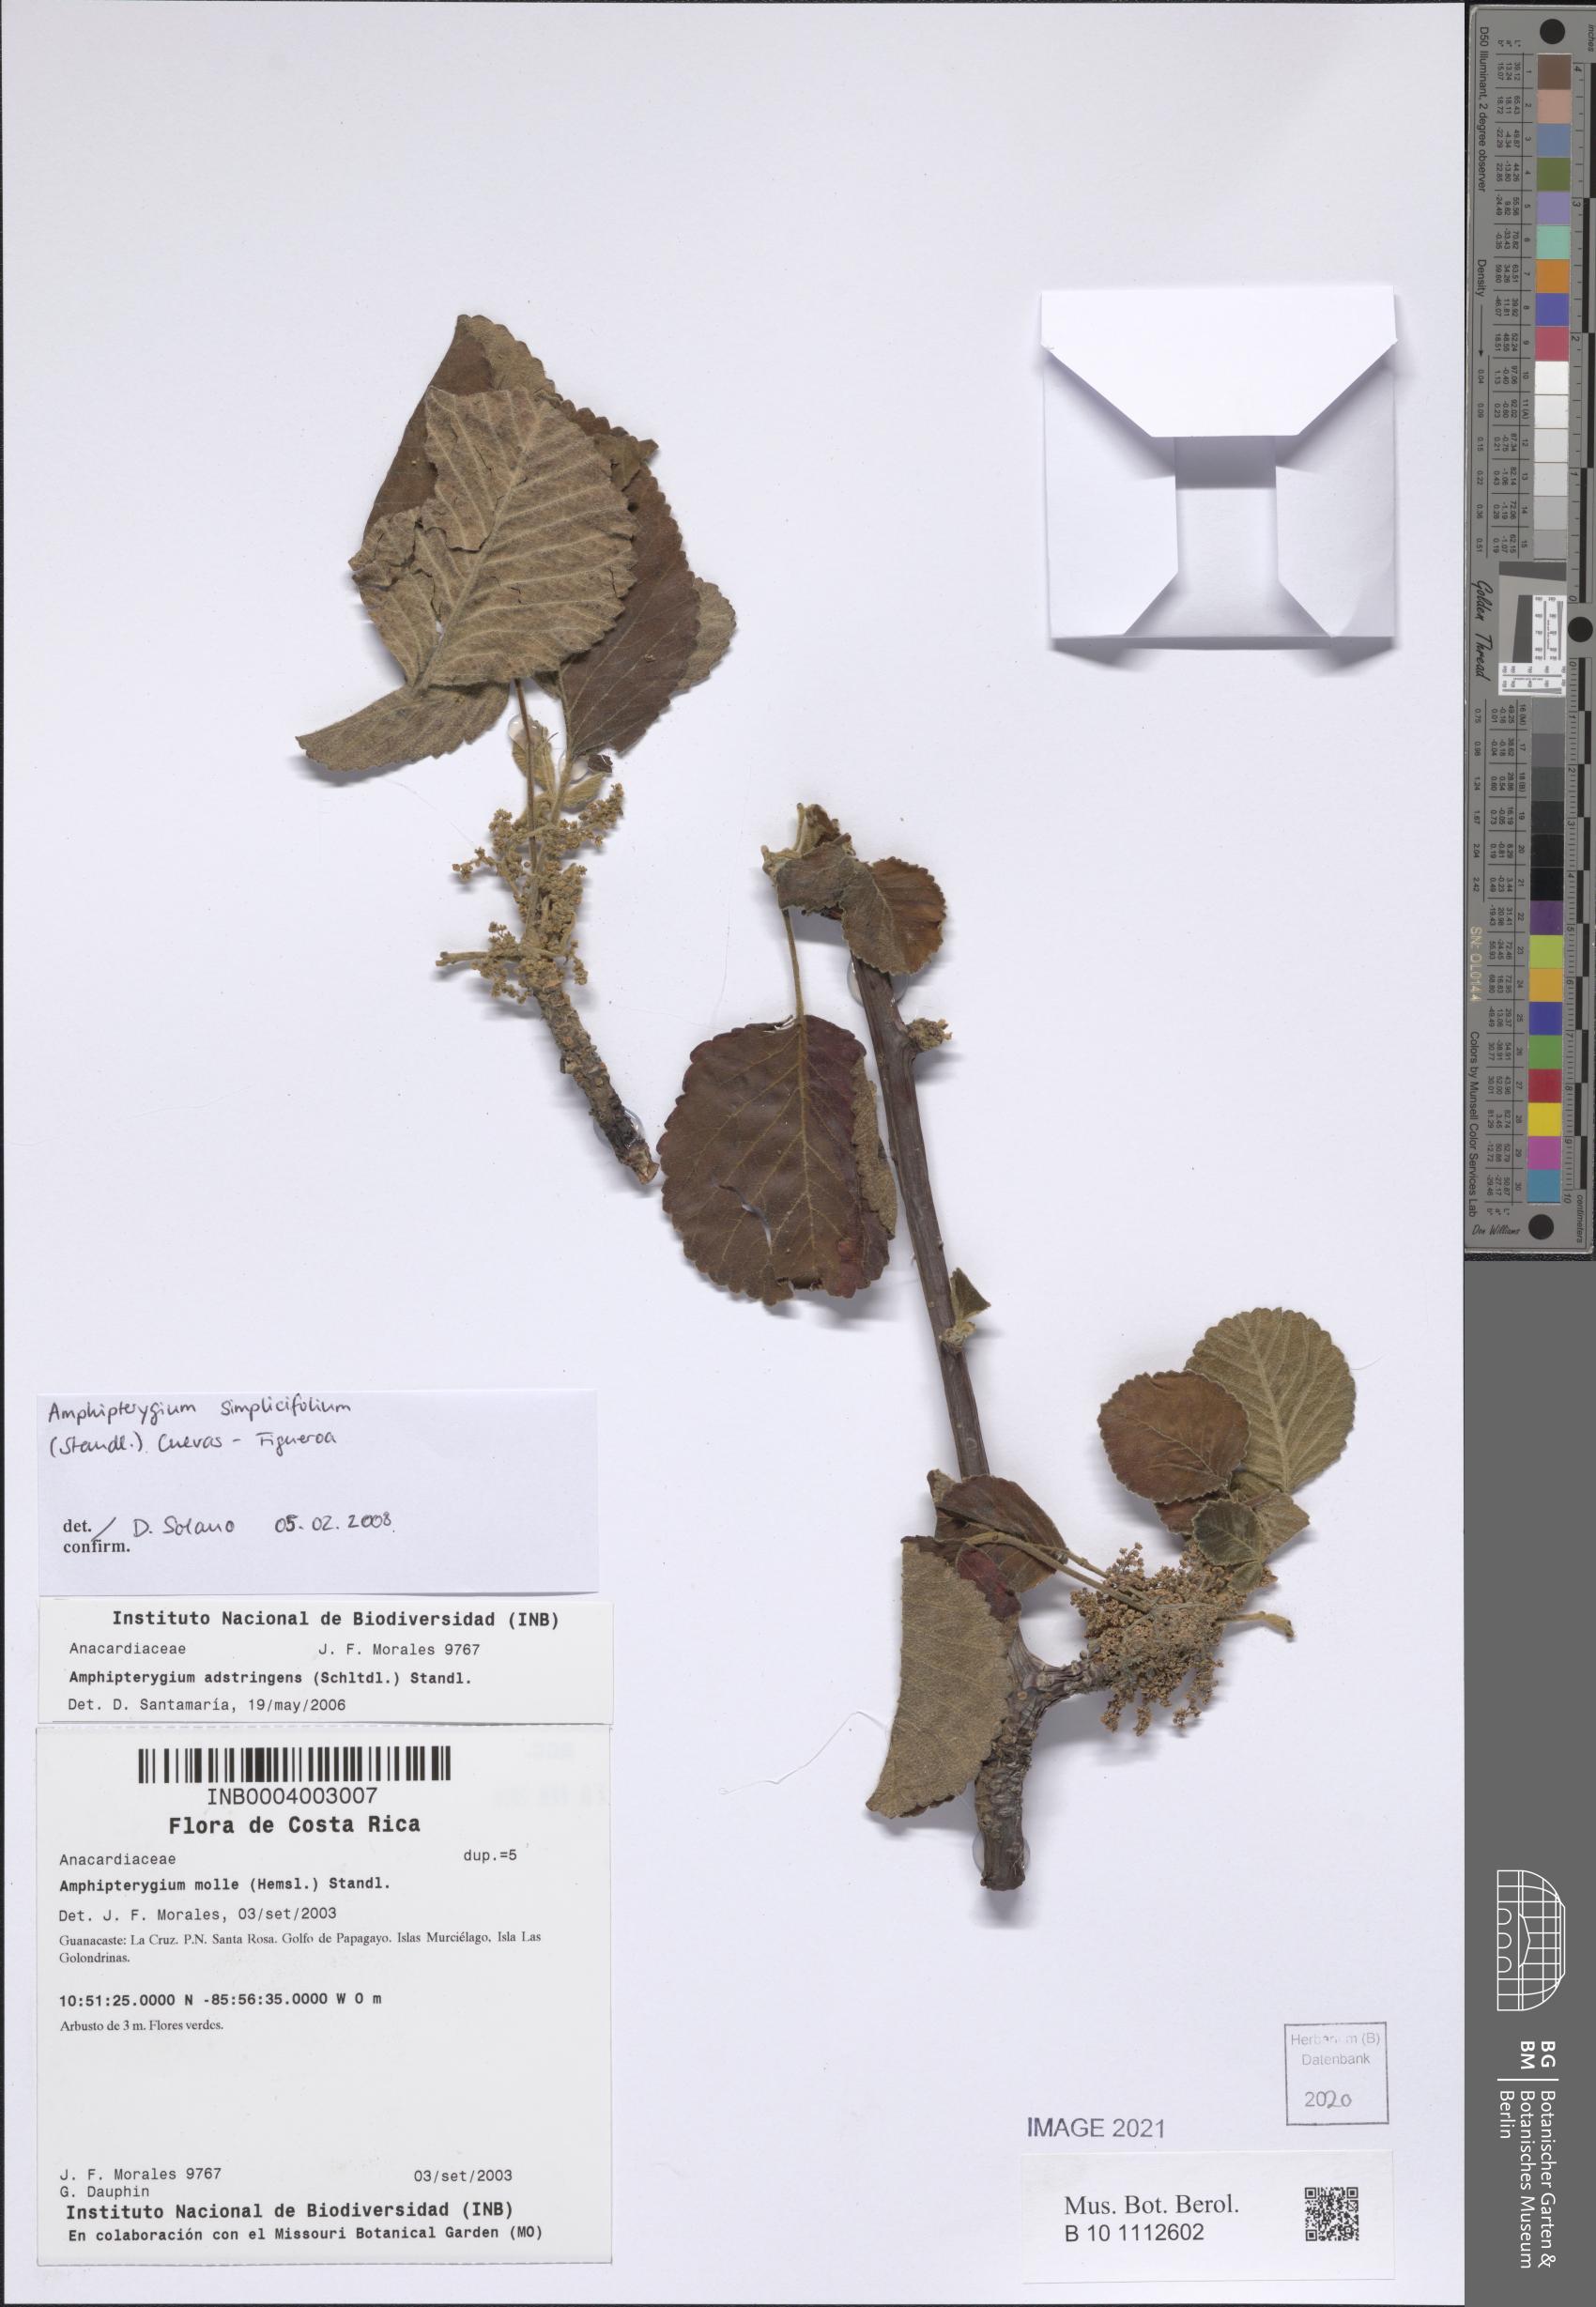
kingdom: Plantae
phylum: Tracheophyta
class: Magnoliopsida
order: Sapindales
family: Anacardiaceae
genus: Amphipterygium
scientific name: Amphipterygium simplicifolium
